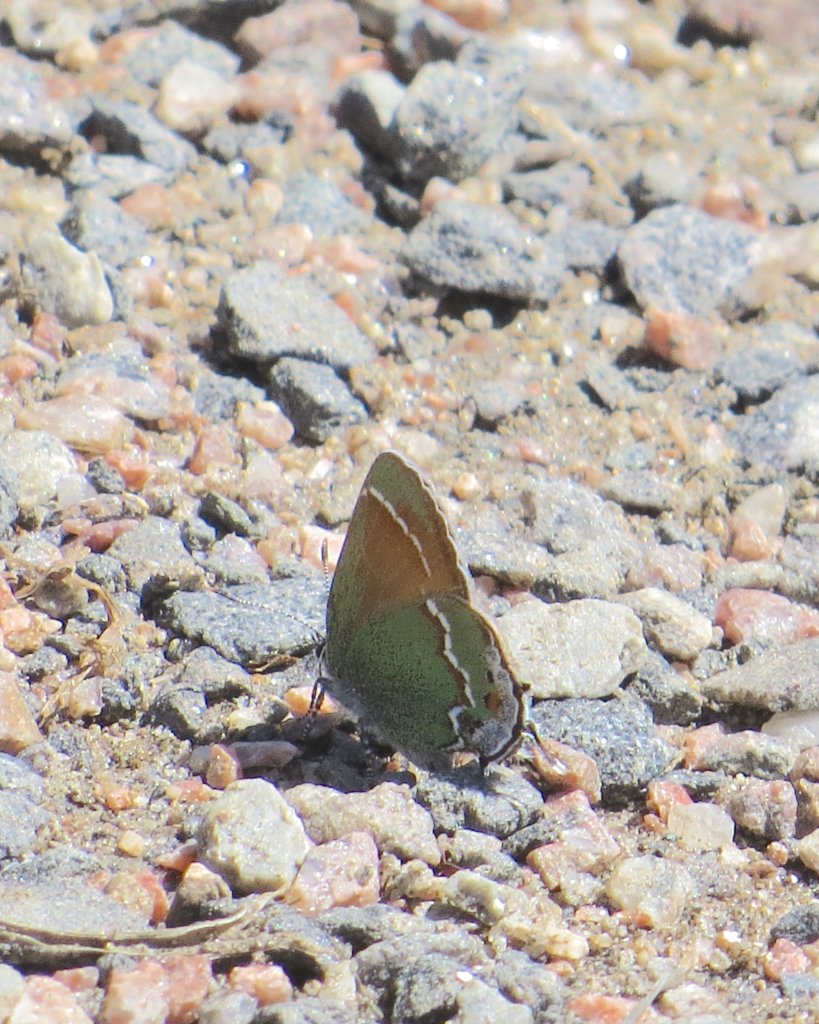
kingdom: Animalia
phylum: Arthropoda
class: Insecta
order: Lepidoptera
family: Lycaenidae
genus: Mitoura
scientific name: Mitoura gryneus
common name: Juniper Hairstreak
